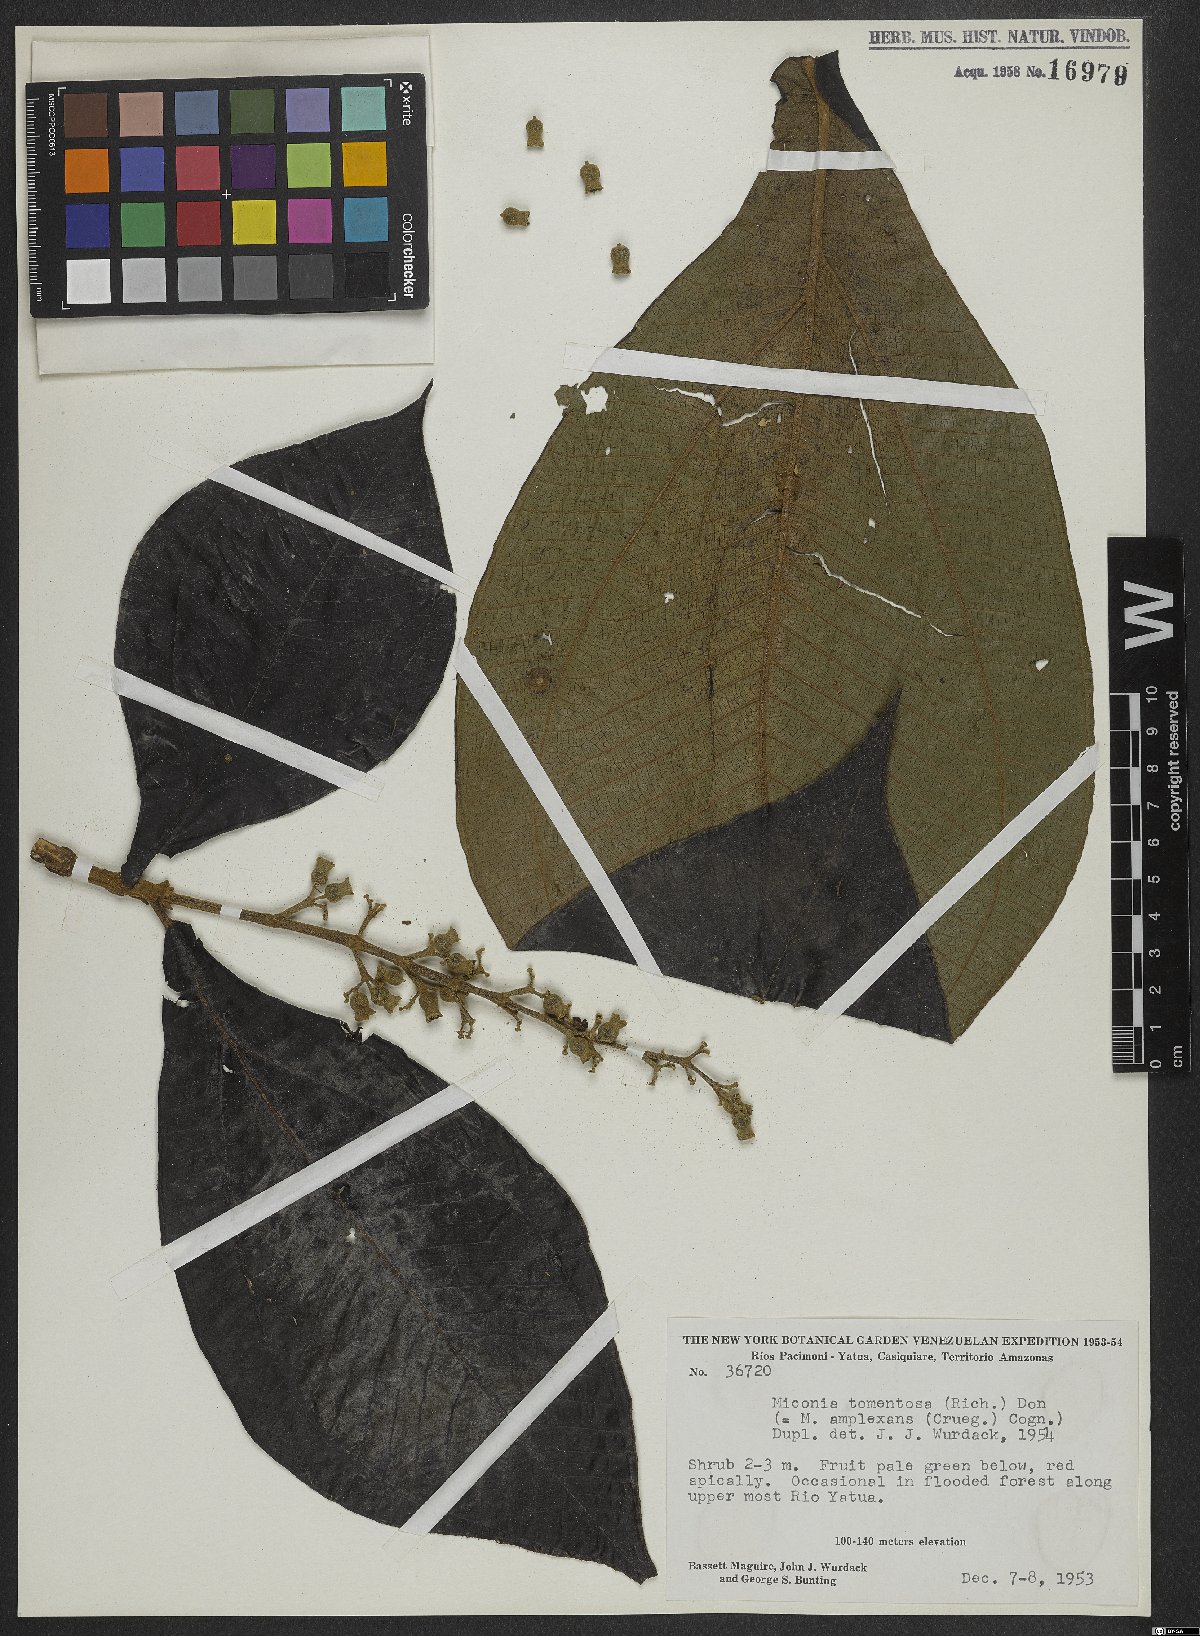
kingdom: Plantae
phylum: Tracheophyta
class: Magnoliopsida
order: Myrtales
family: Melastomataceae
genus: Miconia
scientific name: Miconia tomentosa
